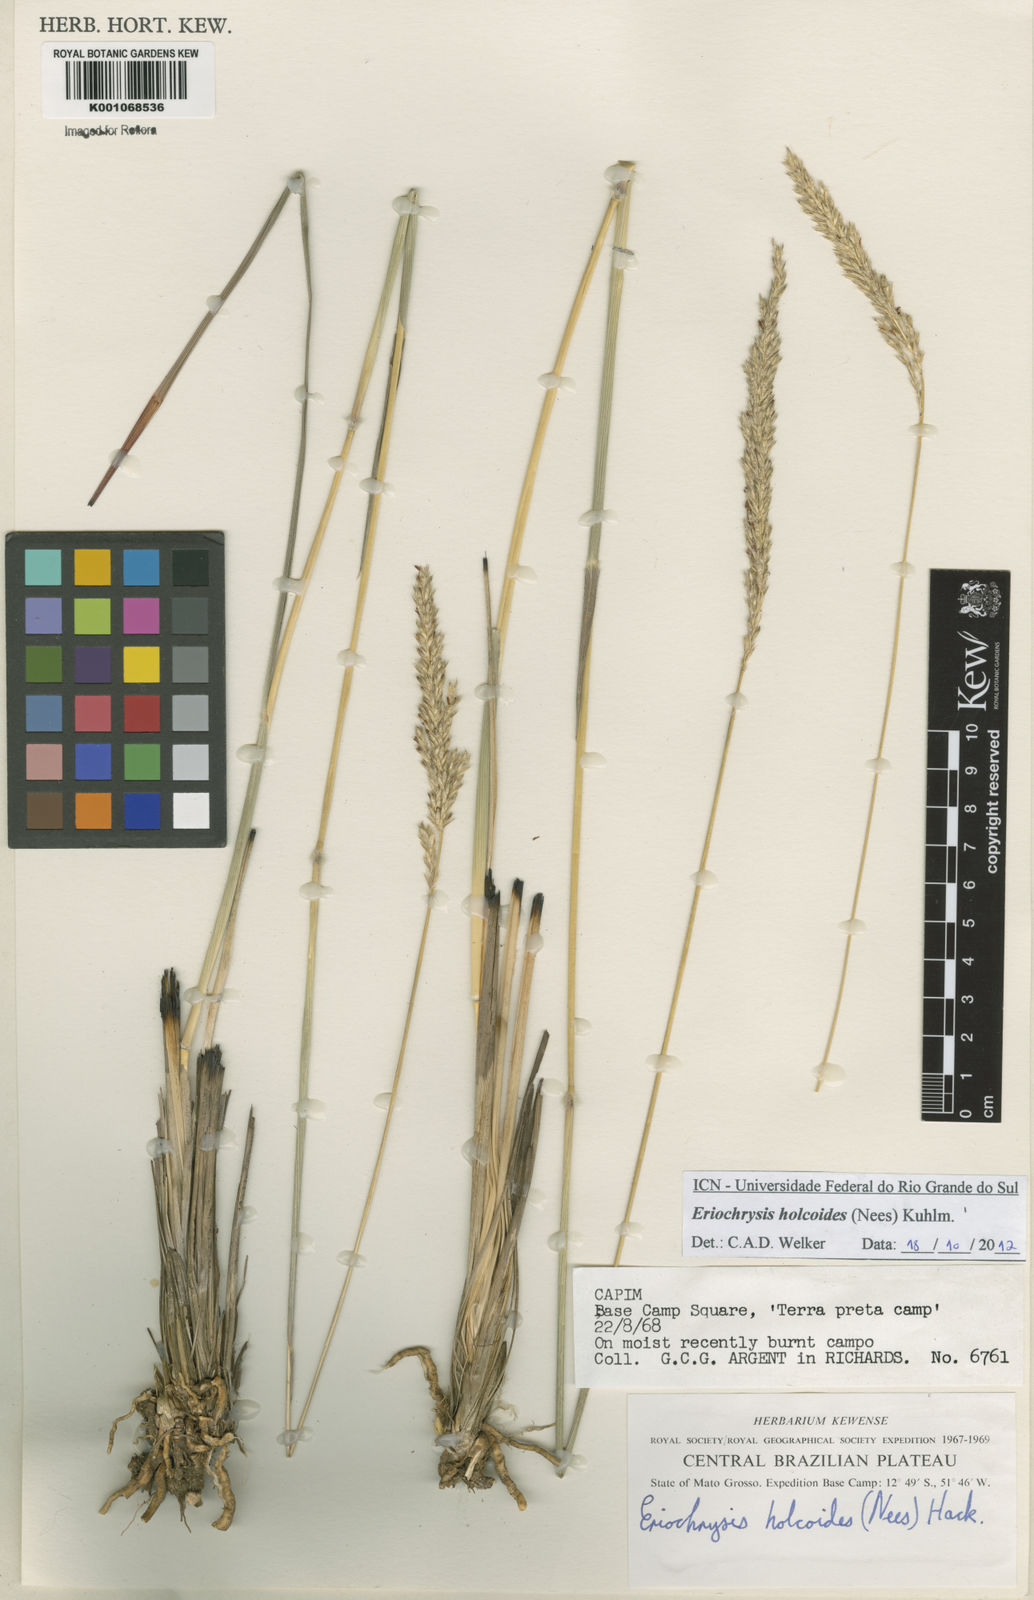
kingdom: Plantae
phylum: Tracheophyta
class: Liliopsida
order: Poales
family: Poaceae
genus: Eriochrysis
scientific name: Eriochrysis holcoides
